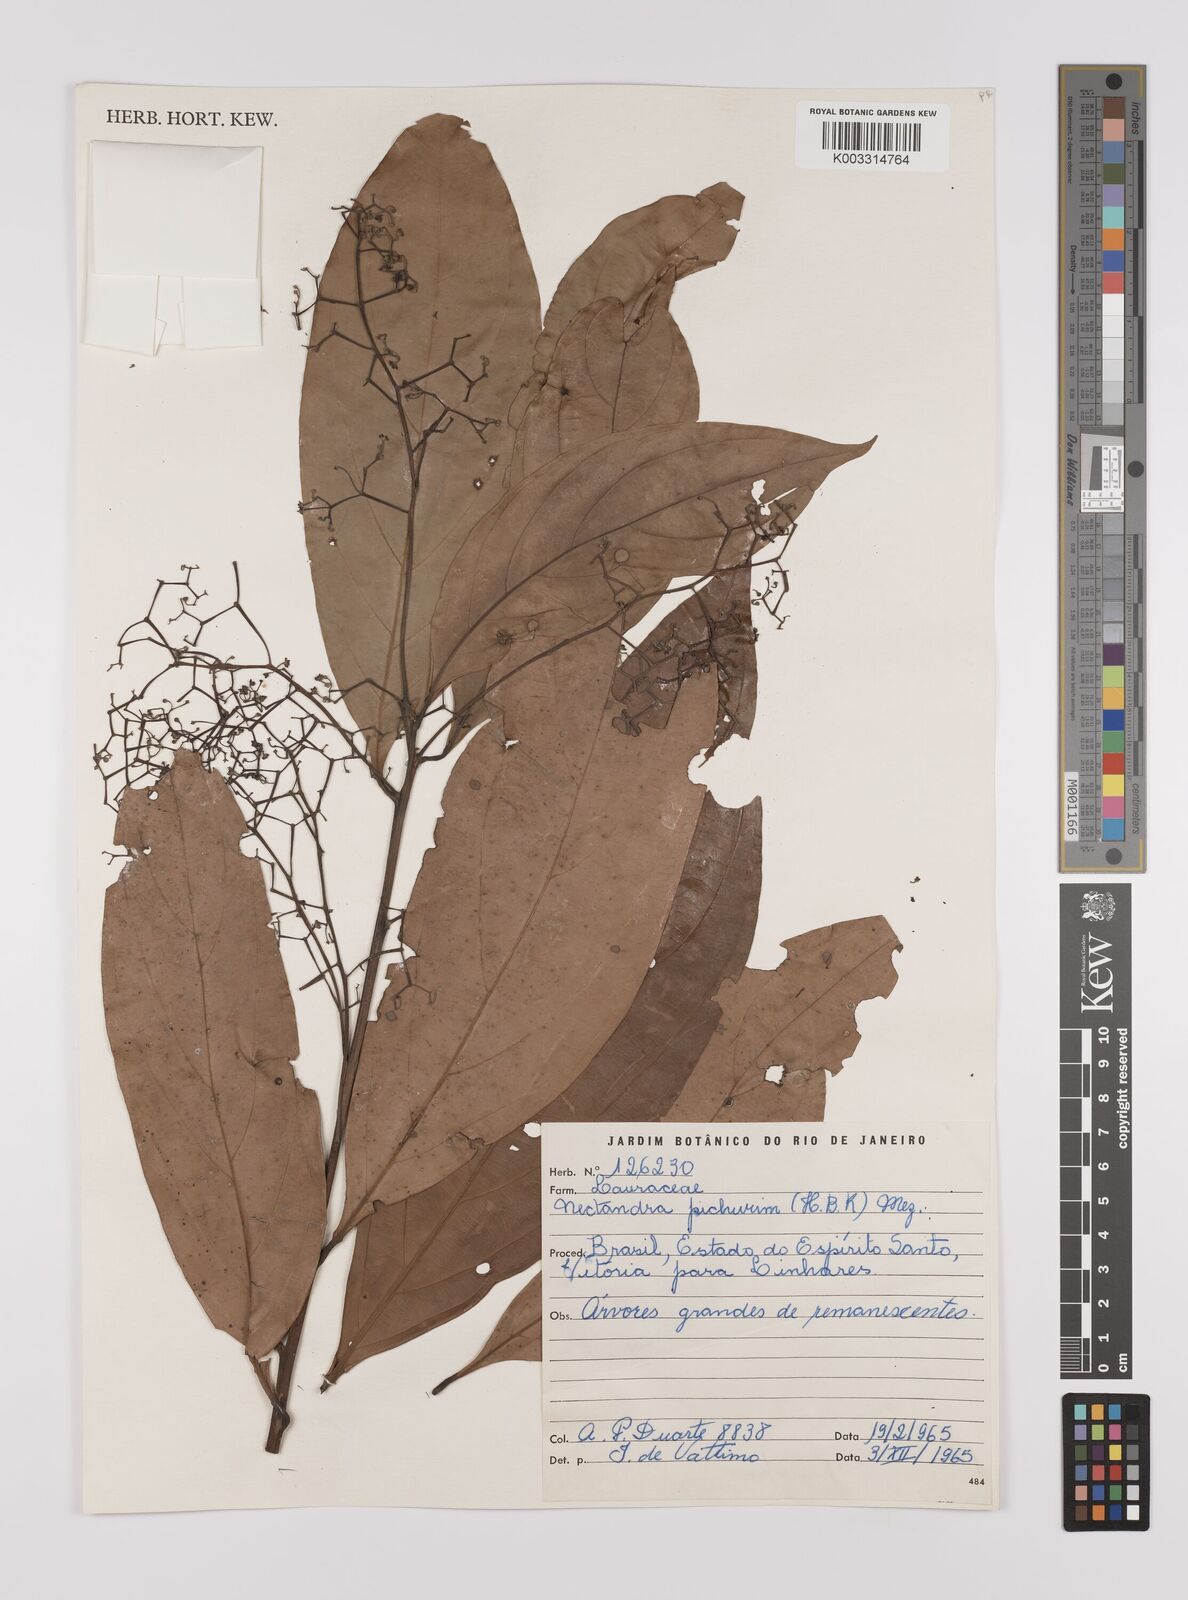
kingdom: Plantae
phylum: Tracheophyta
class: Magnoliopsida
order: Laurales
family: Lauraceae
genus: Nectandra
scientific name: Nectandra cuspidata
